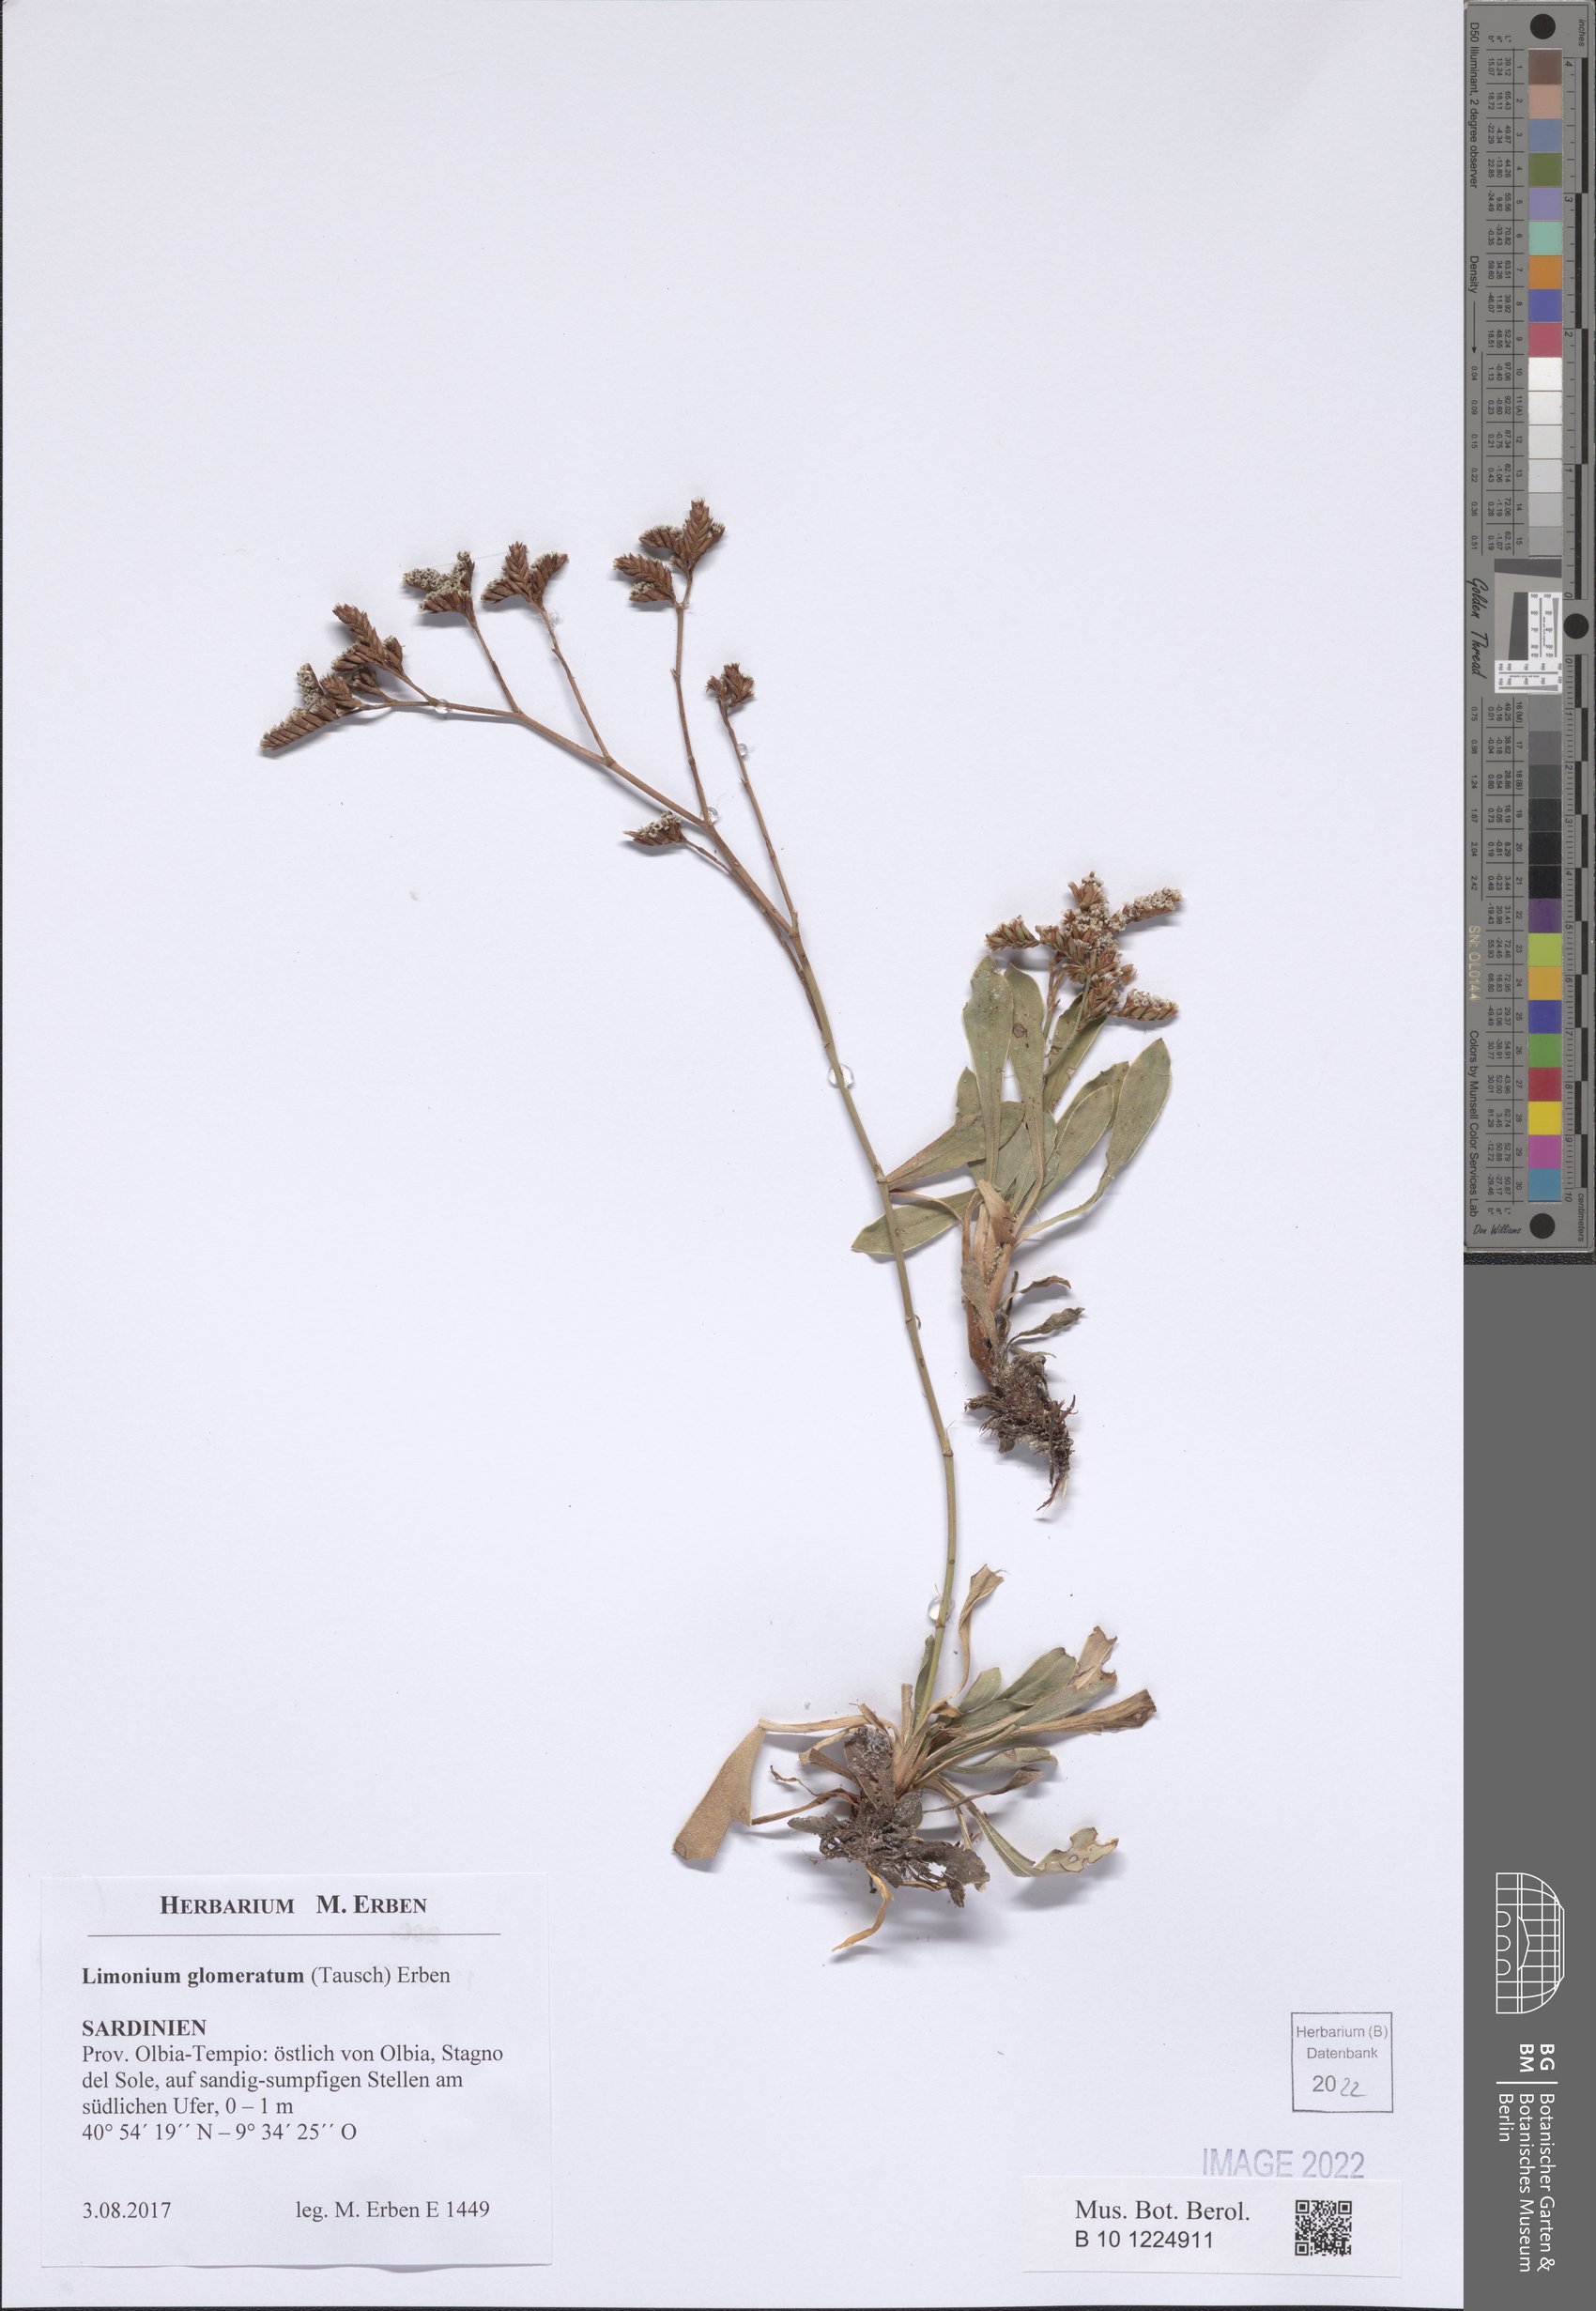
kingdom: Plantae
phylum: Tracheophyta
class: Magnoliopsida
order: Caryophyllales
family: Plumbaginaceae
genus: Limonium
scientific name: Limonium glomeratum
